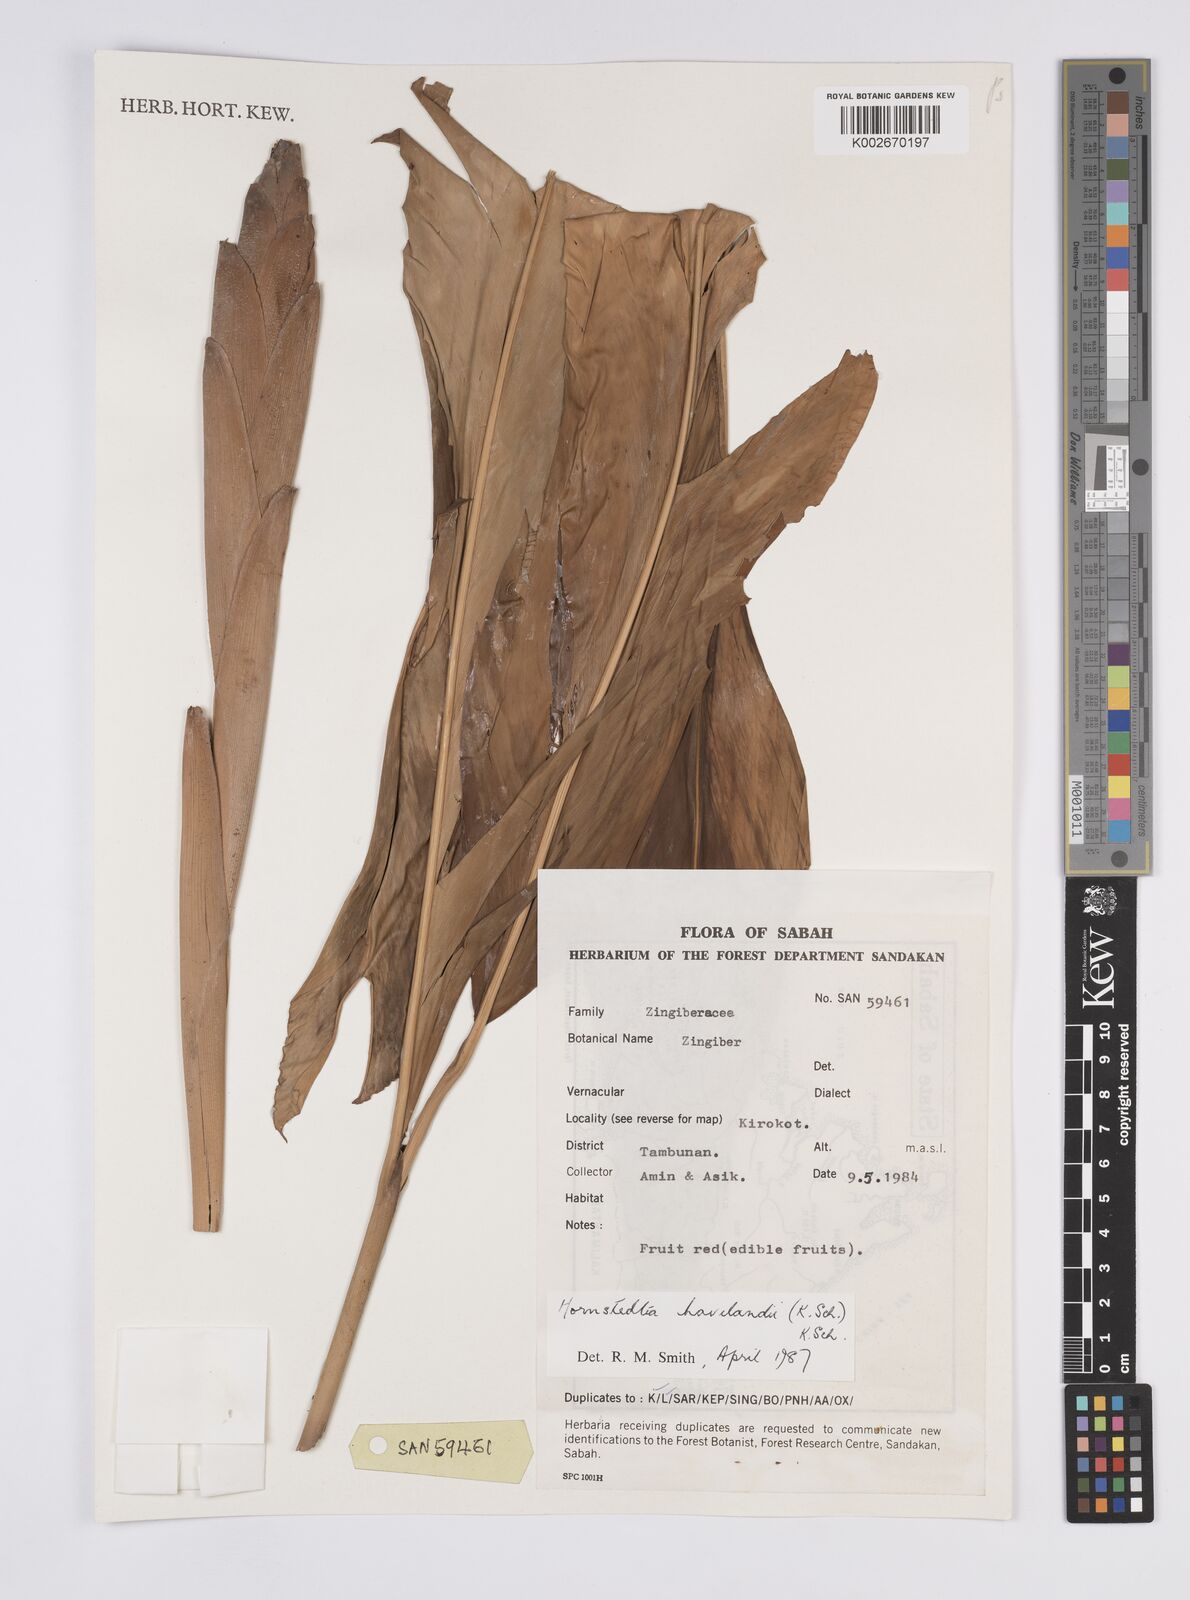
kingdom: Plantae
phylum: Tracheophyta
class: Liliopsida
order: Zingiberales
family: Zingiberaceae
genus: Hornstedtia
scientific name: Hornstedtia havilandii
